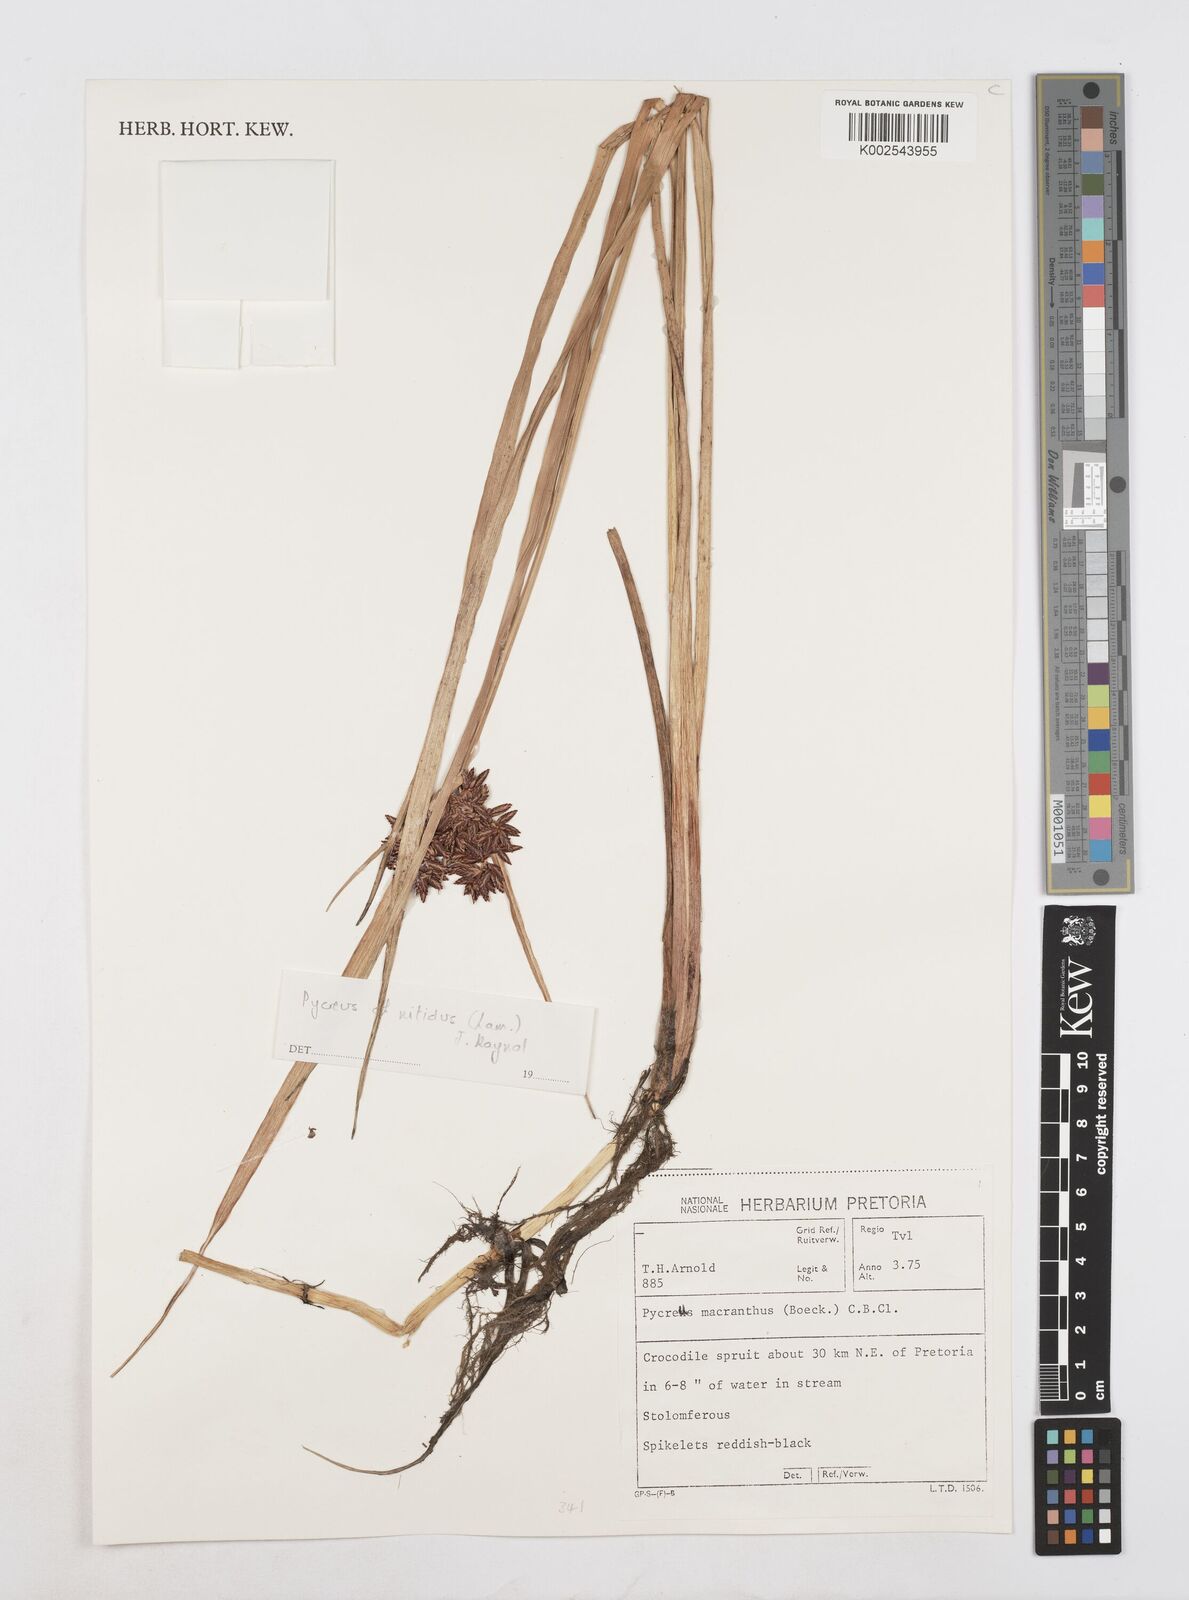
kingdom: Plantae
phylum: Tracheophyta
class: Liliopsida
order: Poales
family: Cyperaceae
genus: Cyperus
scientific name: Cyperus
